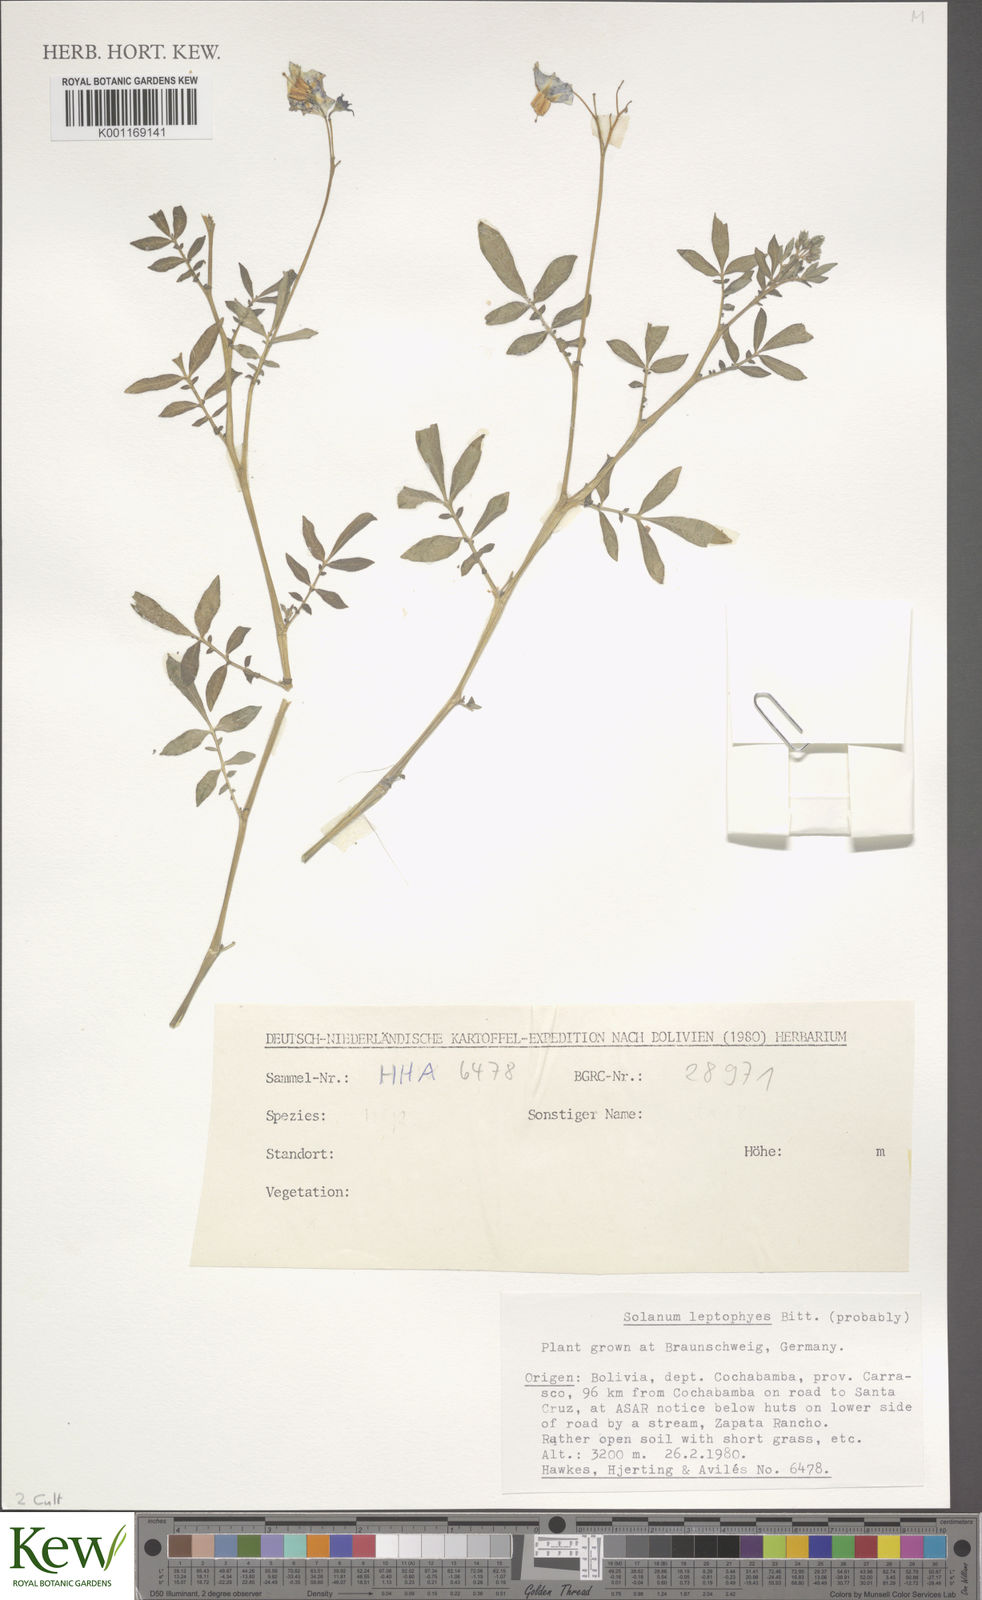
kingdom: Plantae
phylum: Tracheophyta
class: Magnoliopsida
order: Solanales
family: Solanaceae
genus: Solanum
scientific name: Solanum brevicaule
